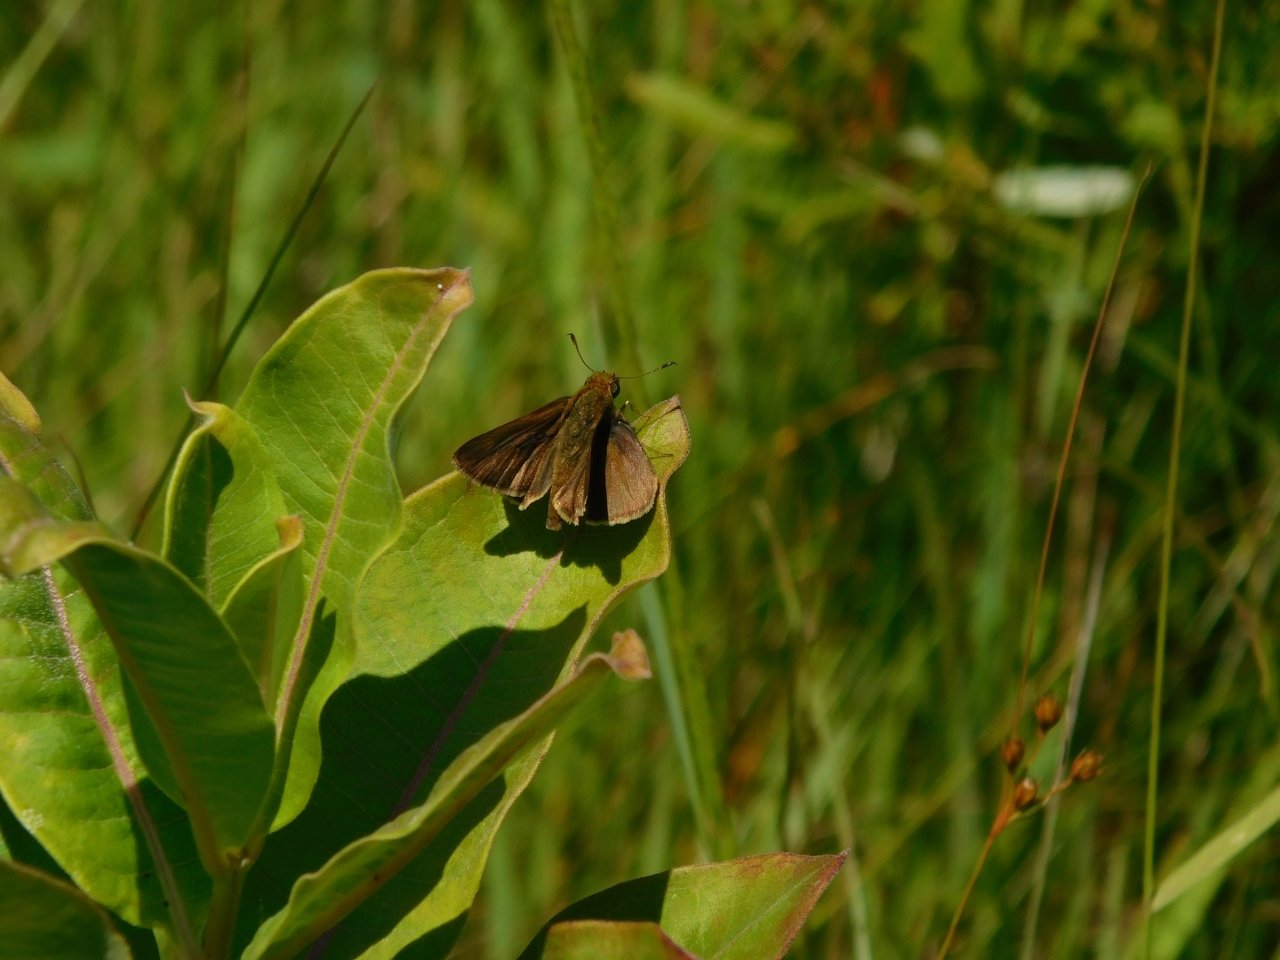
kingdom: Animalia
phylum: Arthropoda
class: Insecta
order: Lepidoptera
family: Hesperiidae
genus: Euphyes
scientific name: Euphyes vestris
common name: Dun Skipper
